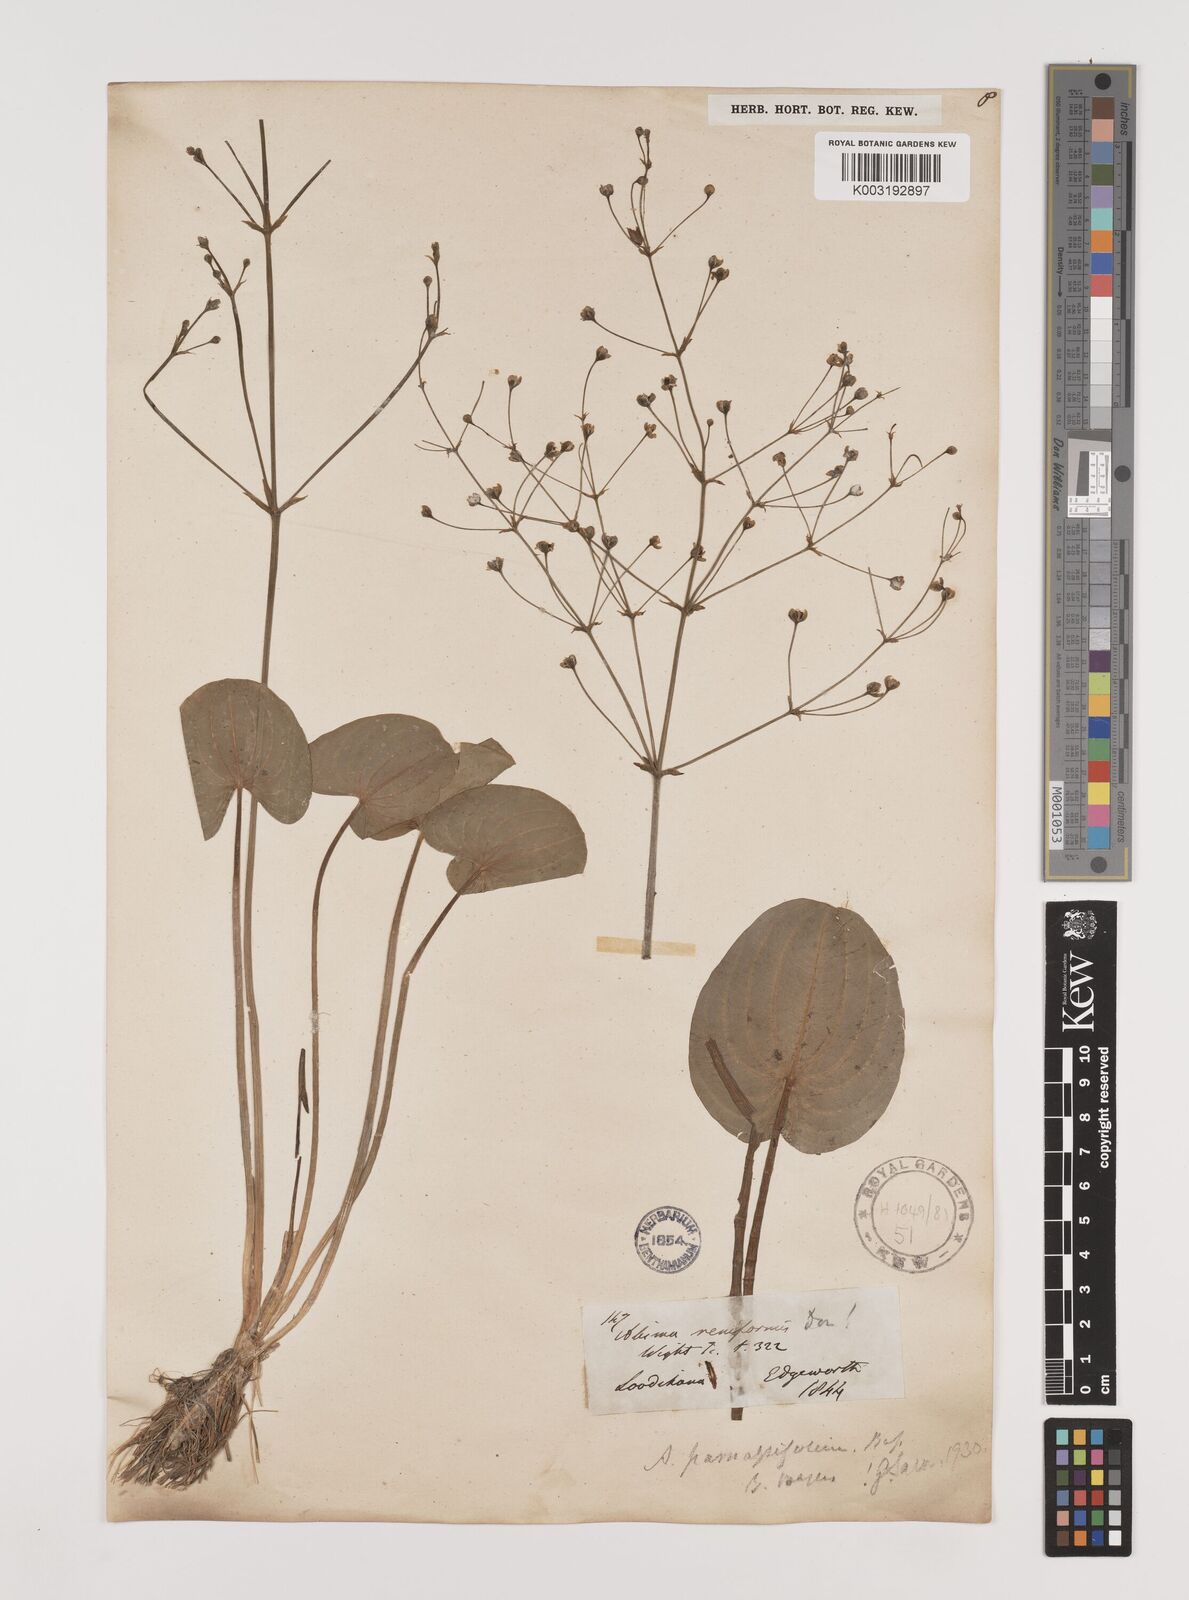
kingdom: Plantae
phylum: Tracheophyta
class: Liliopsida
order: Alismatales
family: Alismataceae
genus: Caldesia
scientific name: Caldesia parnassifolia
